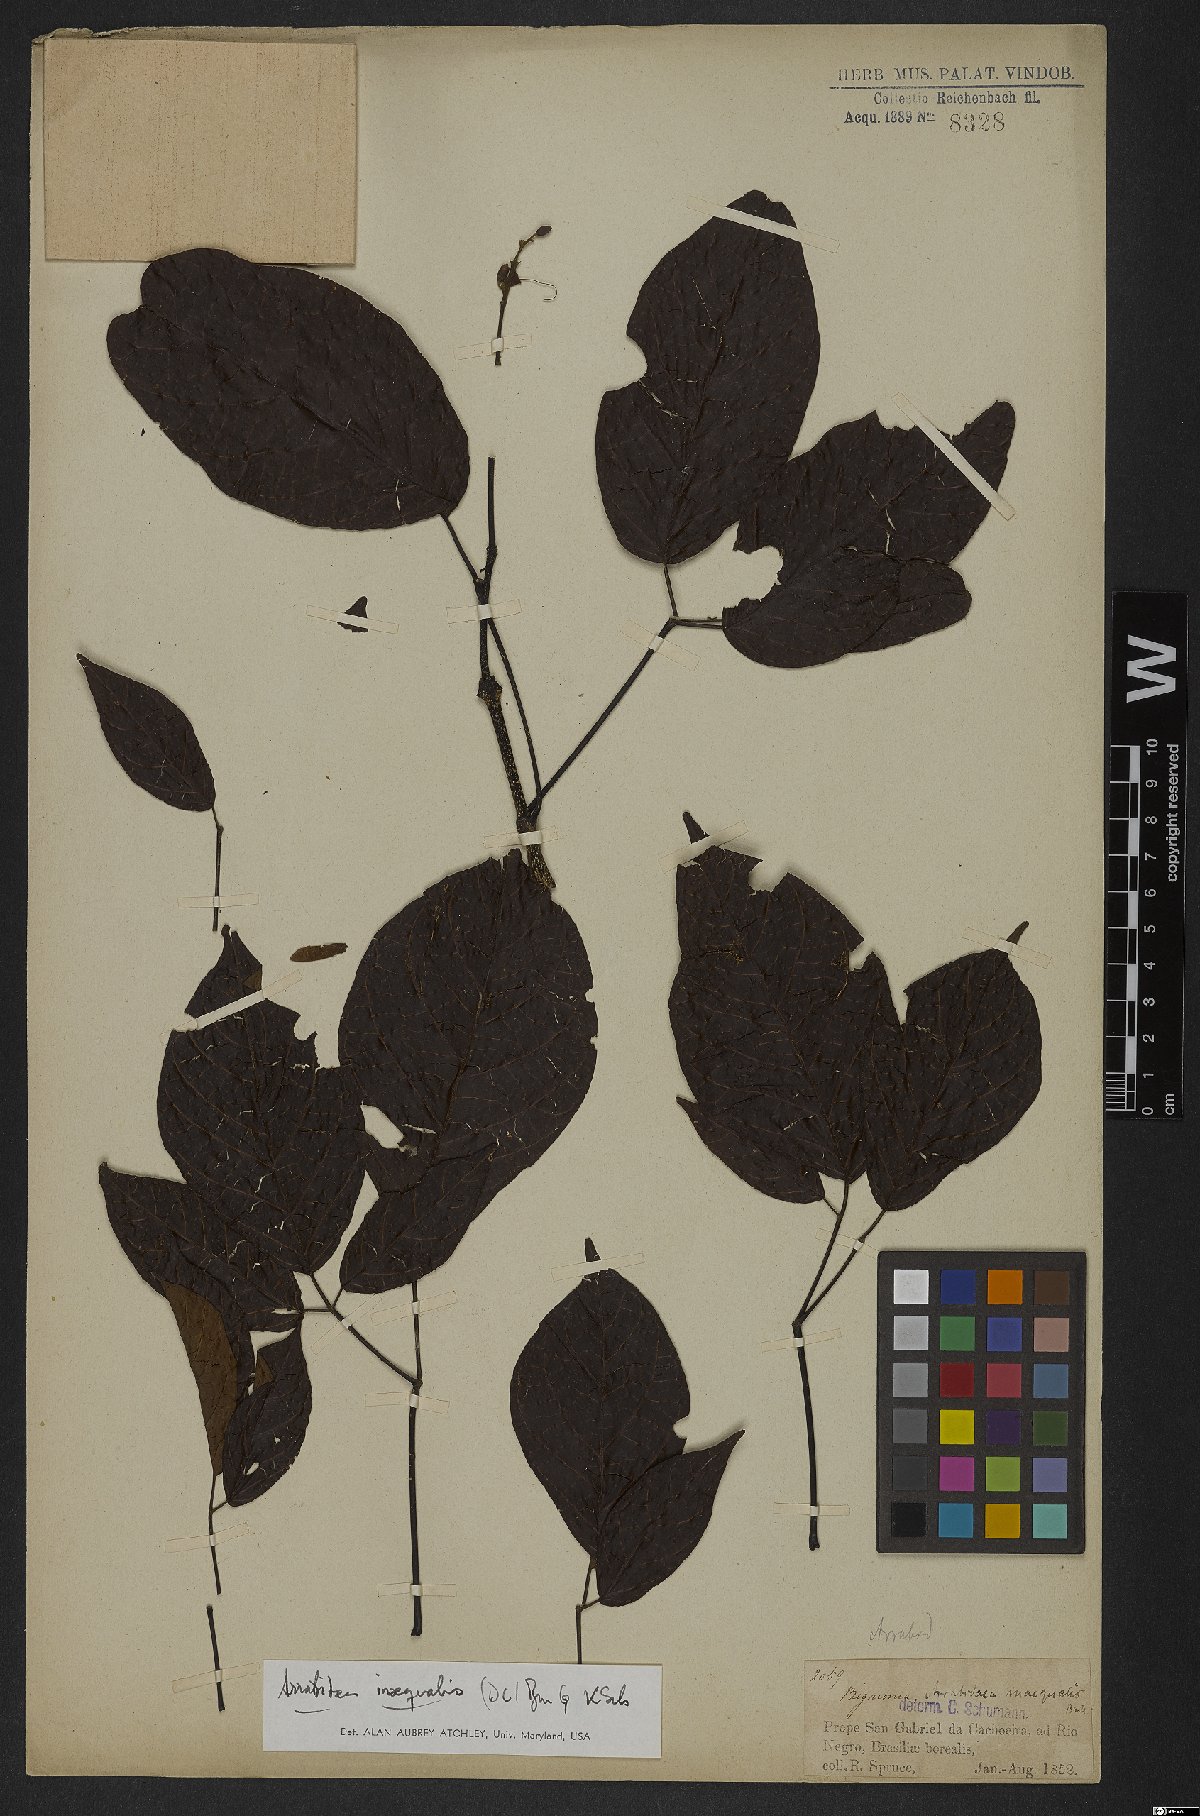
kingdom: Plantae
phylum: Tracheophyta
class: Magnoliopsida
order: Lamiales
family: Bignoniaceae
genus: Cuspidaria
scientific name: Cuspidaria inaequalis
